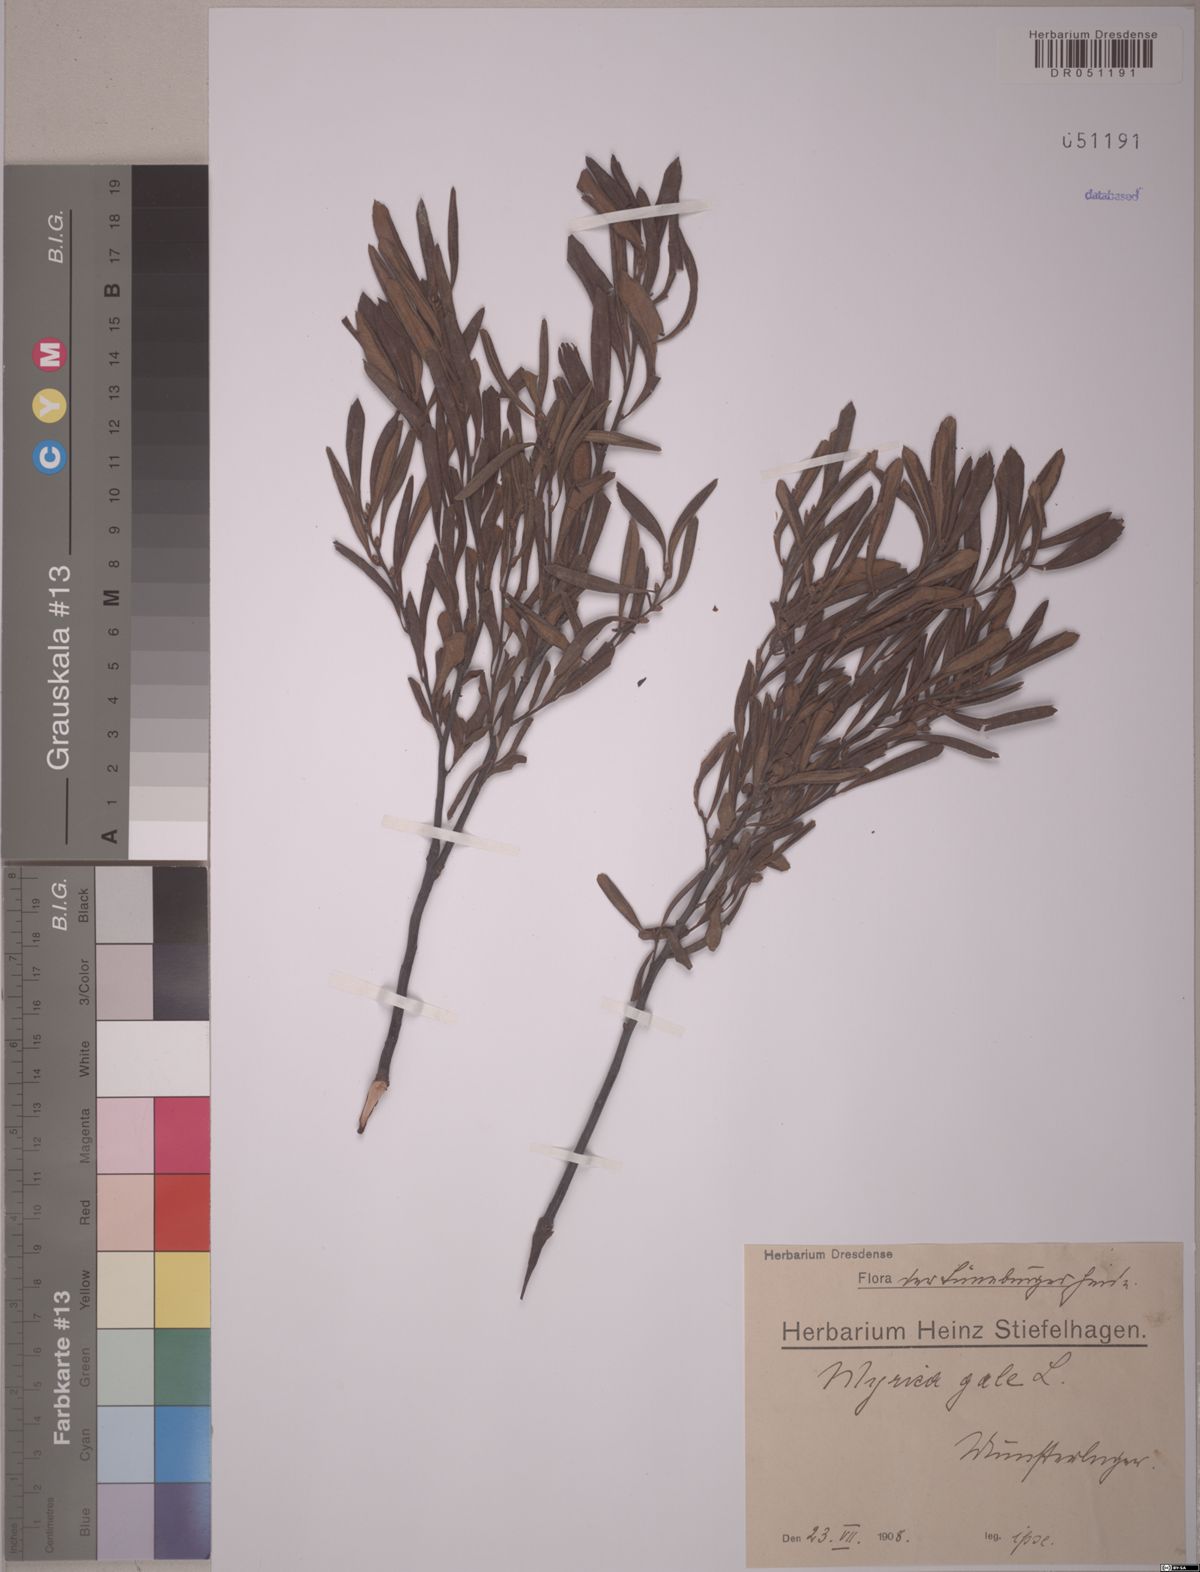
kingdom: Plantae
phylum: Tracheophyta
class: Magnoliopsida
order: Fagales
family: Myricaceae
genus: Myrica
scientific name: Myrica gale
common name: Sweet gale
